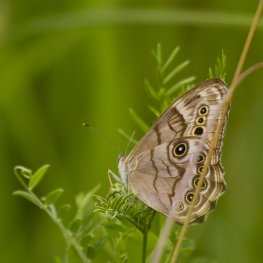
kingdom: Animalia
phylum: Arthropoda
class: Insecta
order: Lepidoptera
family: Nymphalidae
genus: Lethe
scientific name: Lethe anthedon
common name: Northern Pearly-Eye
